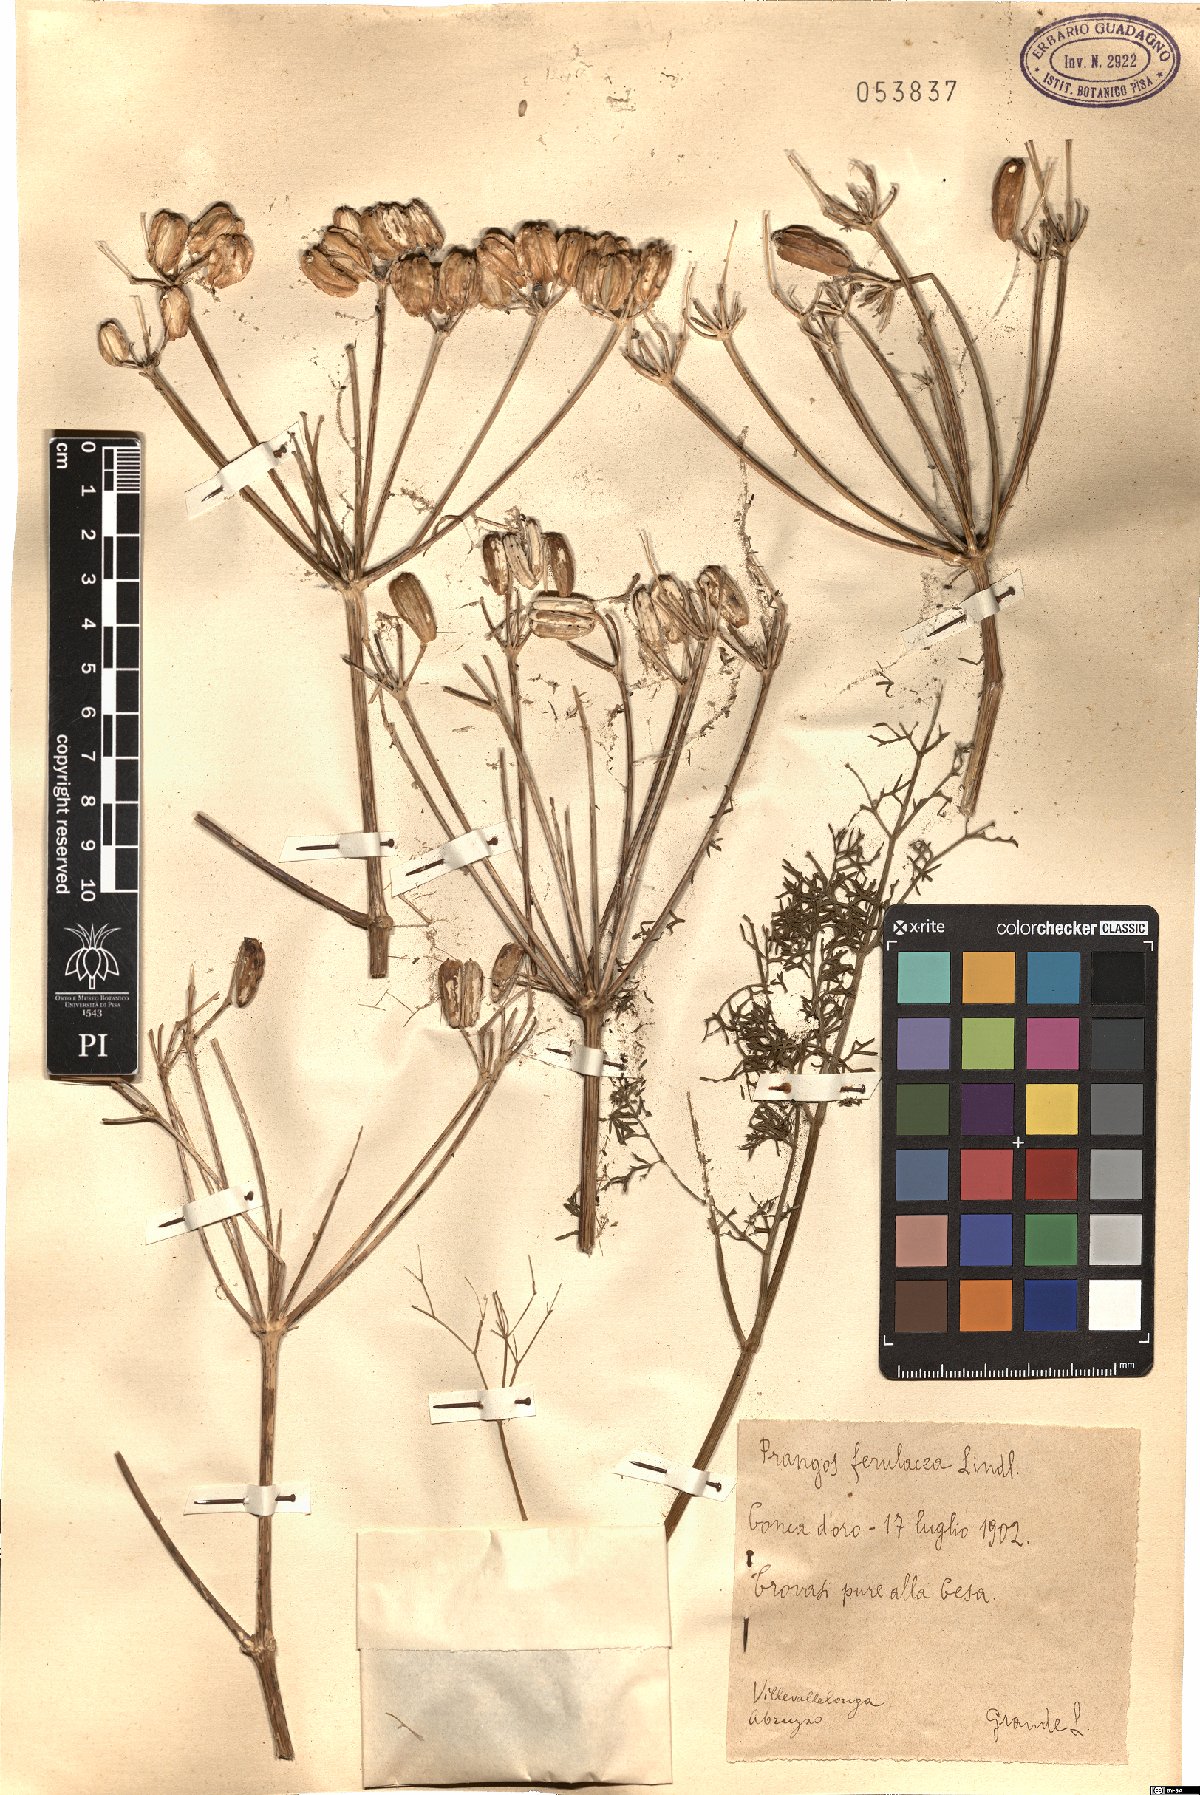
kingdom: Plantae
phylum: Tracheophyta
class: Magnoliopsida
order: Apiales
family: Apiaceae
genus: Prangos
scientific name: Prangos ferulacea
